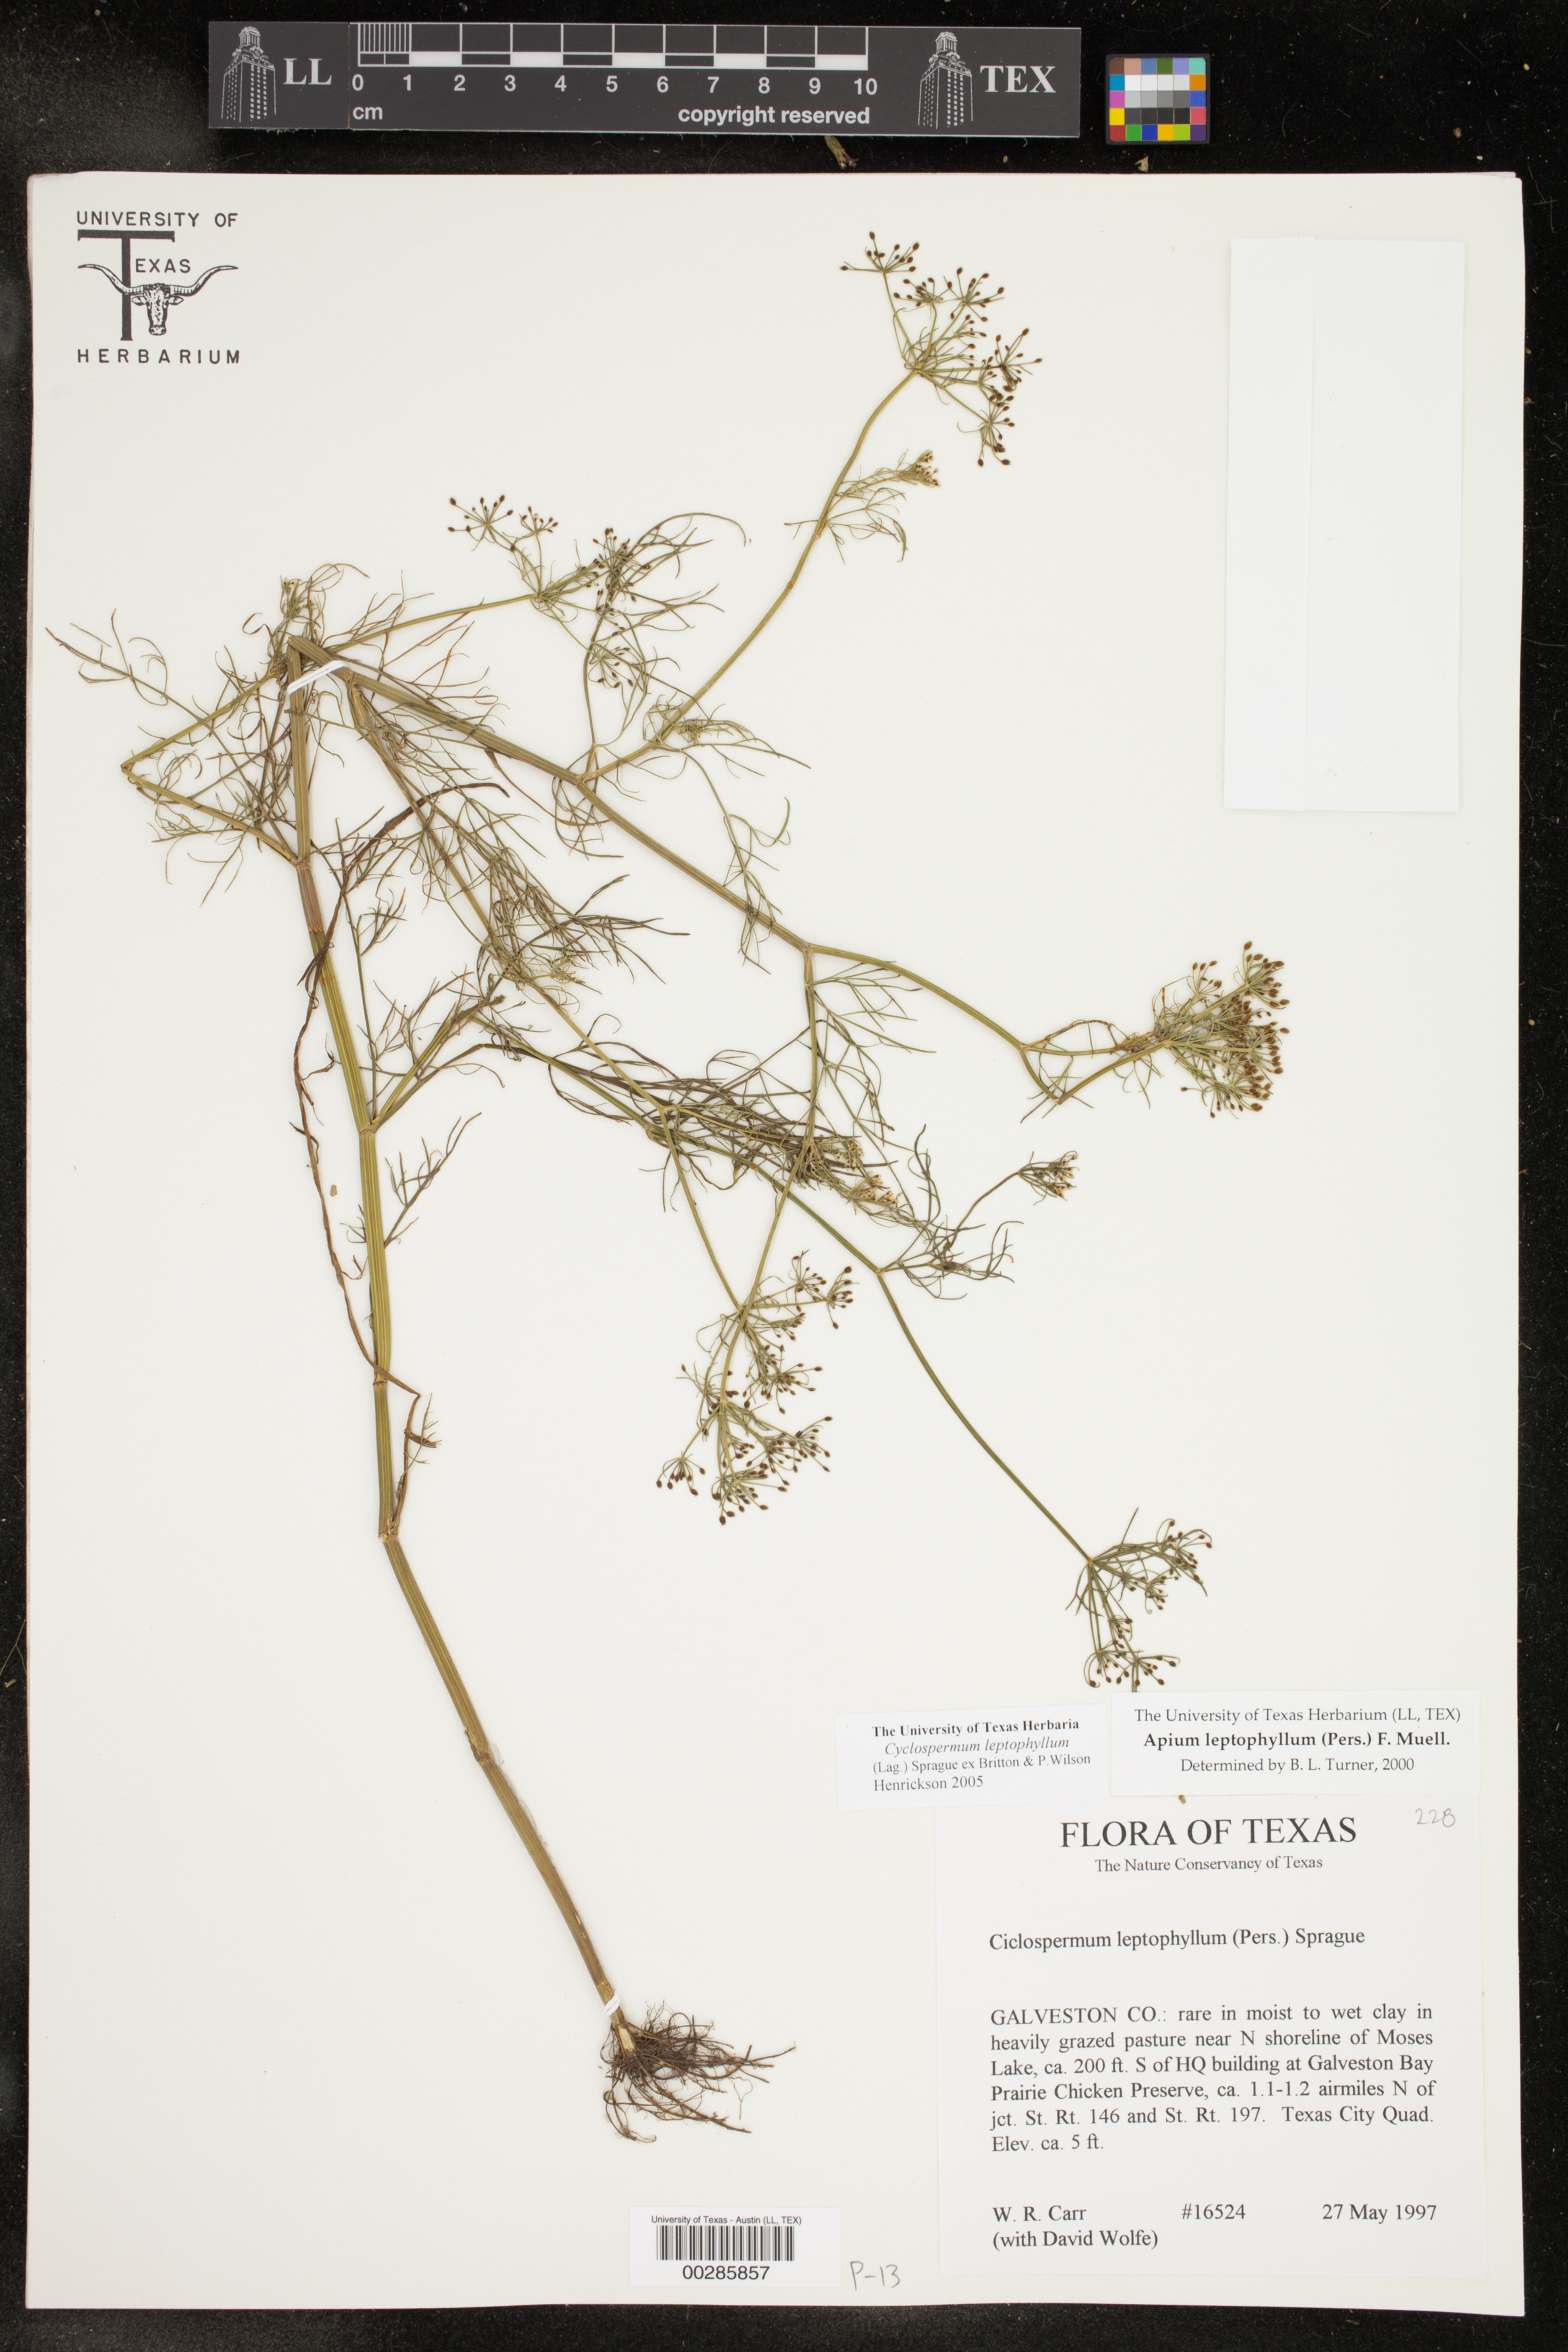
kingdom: Plantae
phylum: Tracheophyta
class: Magnoliopsida
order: Apiales
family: Apiaceae
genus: Cyclospermum
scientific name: Cyclospermum leptophyllum
